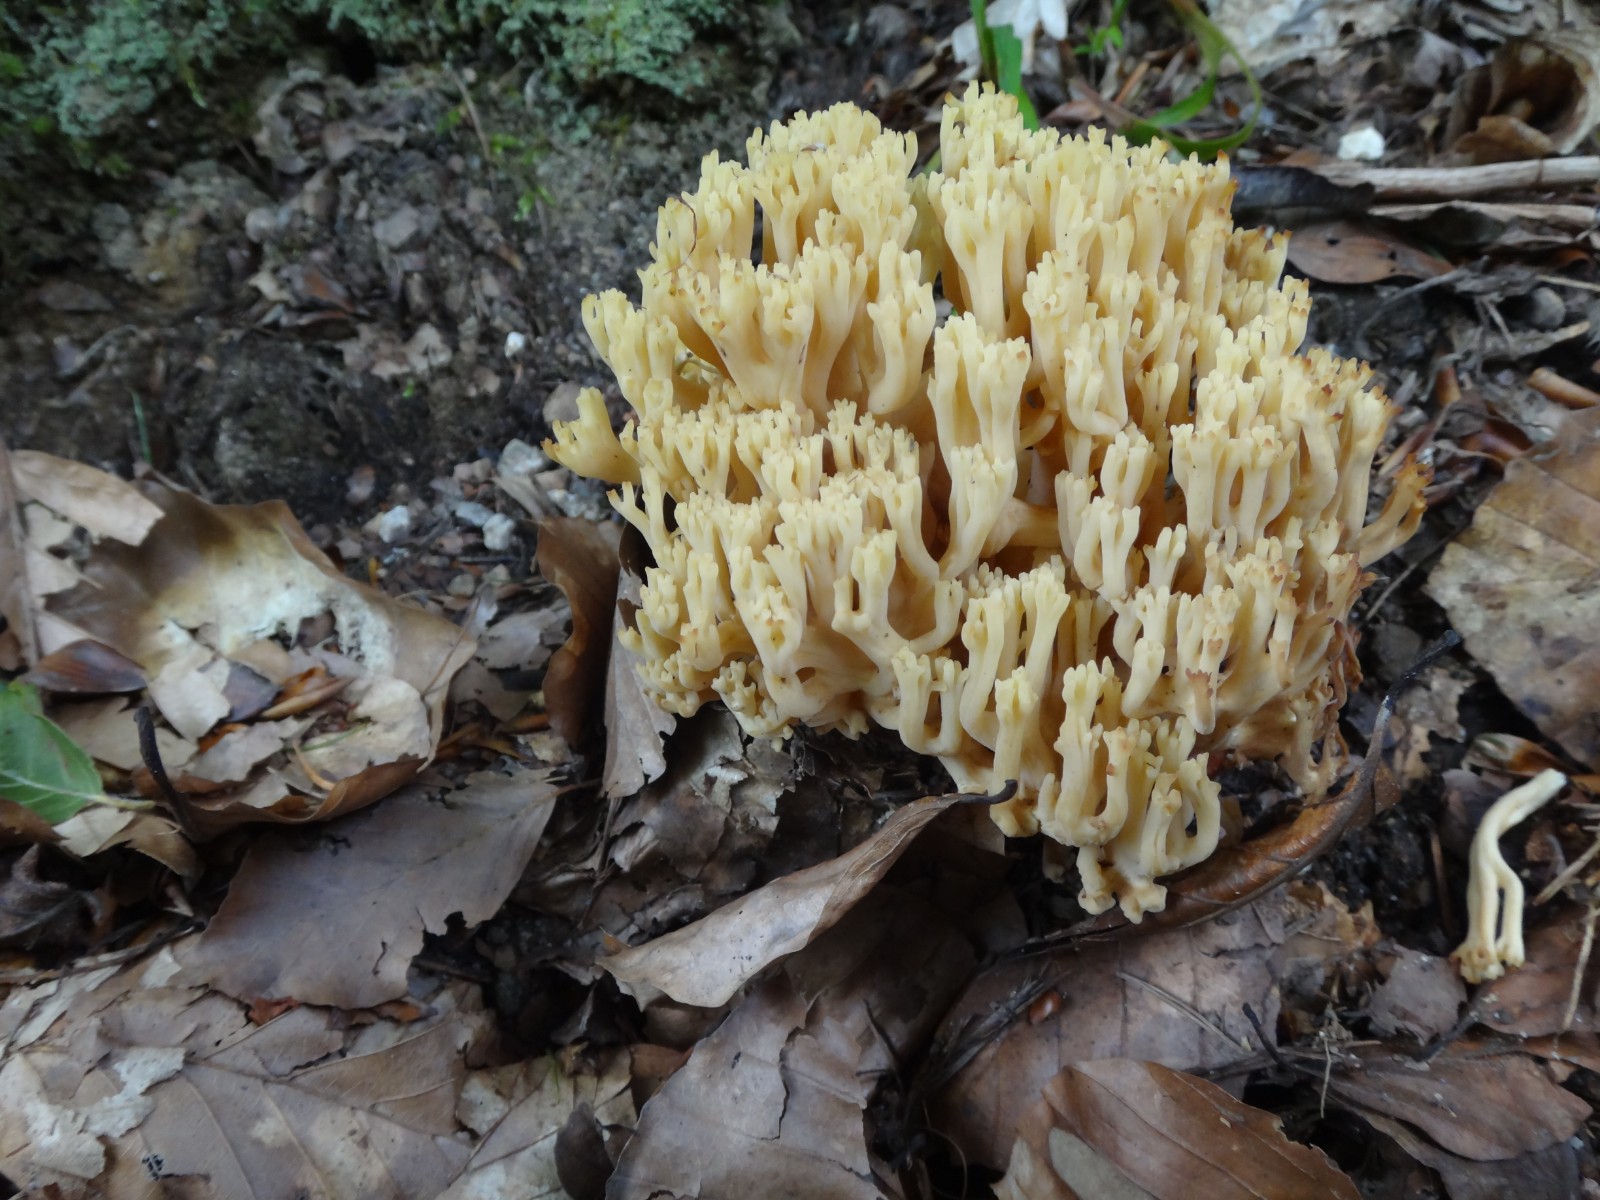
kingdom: Fungi
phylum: Basidiomycota
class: Agaricomycetes
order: Gomphales
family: Gomphaceae
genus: Ramaria
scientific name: Ramaria krieglsteineri
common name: smalsporet koralsvamp
